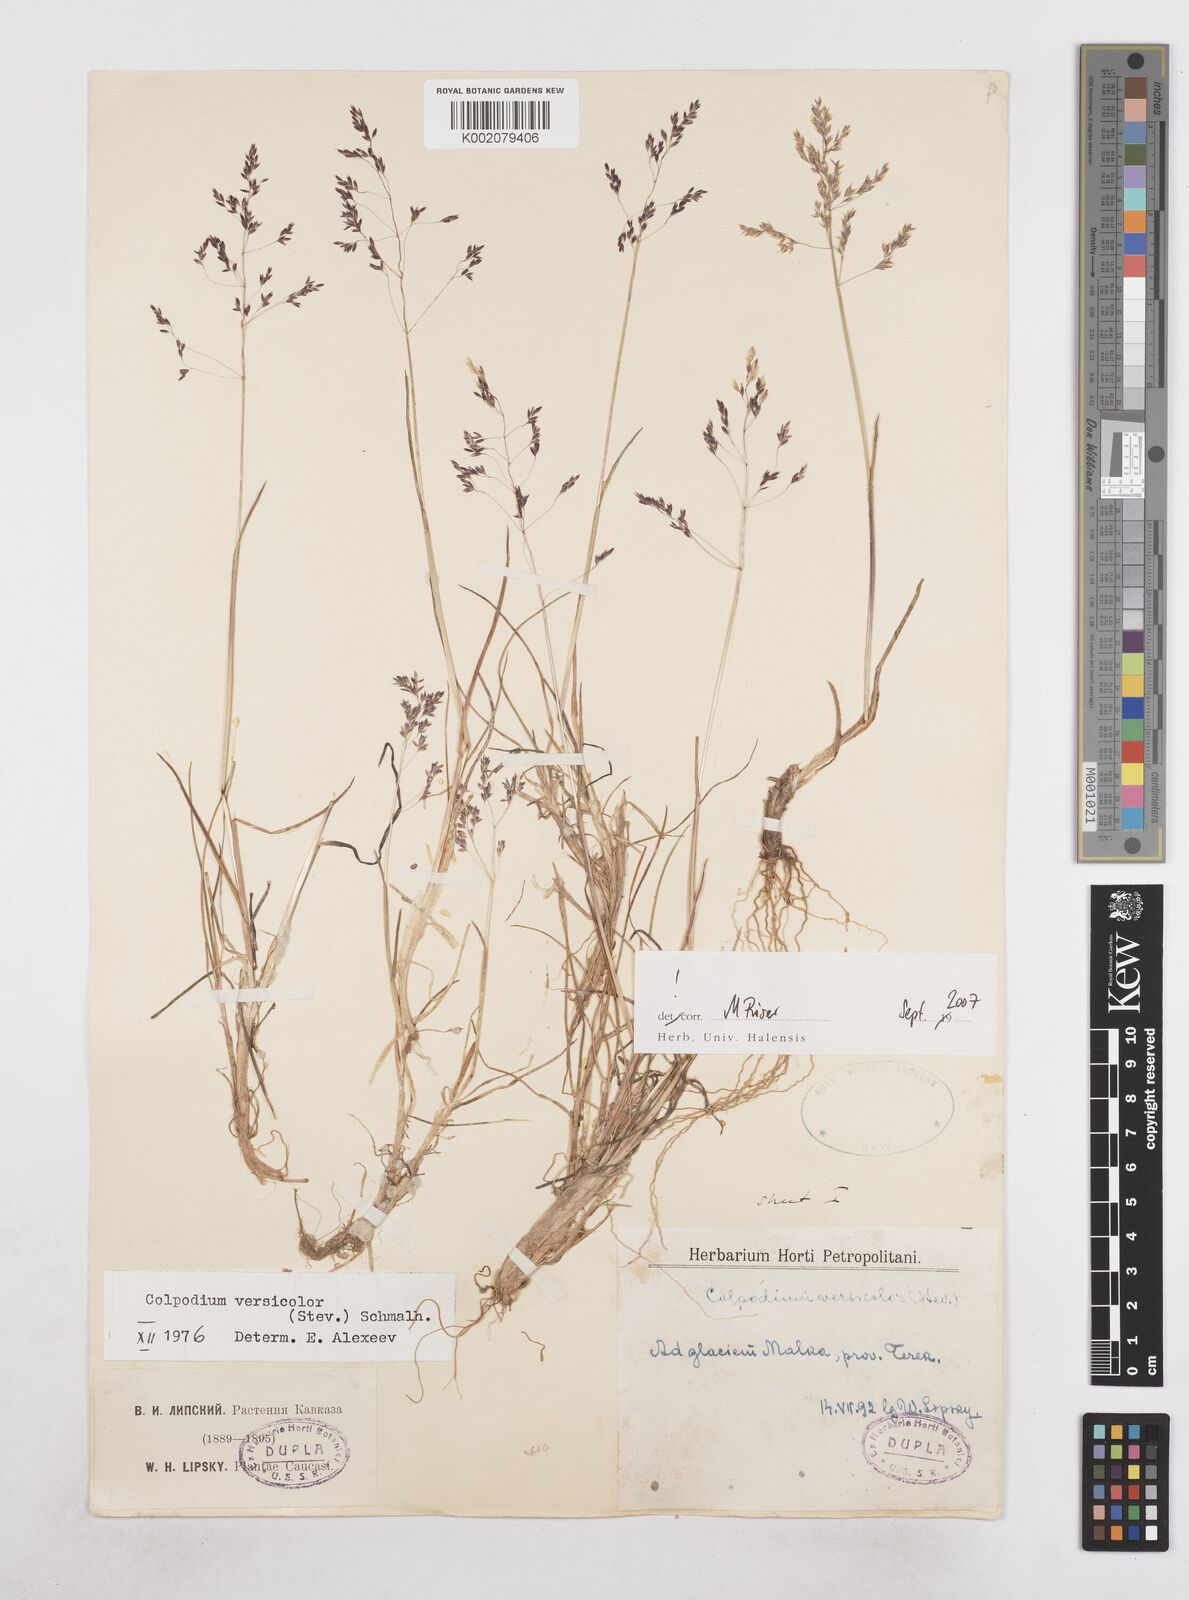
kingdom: Plantae
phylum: Tracheophyta
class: Liliopsida
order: Poales
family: Poaceae
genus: Colpodium
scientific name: Colpodium versicolor
